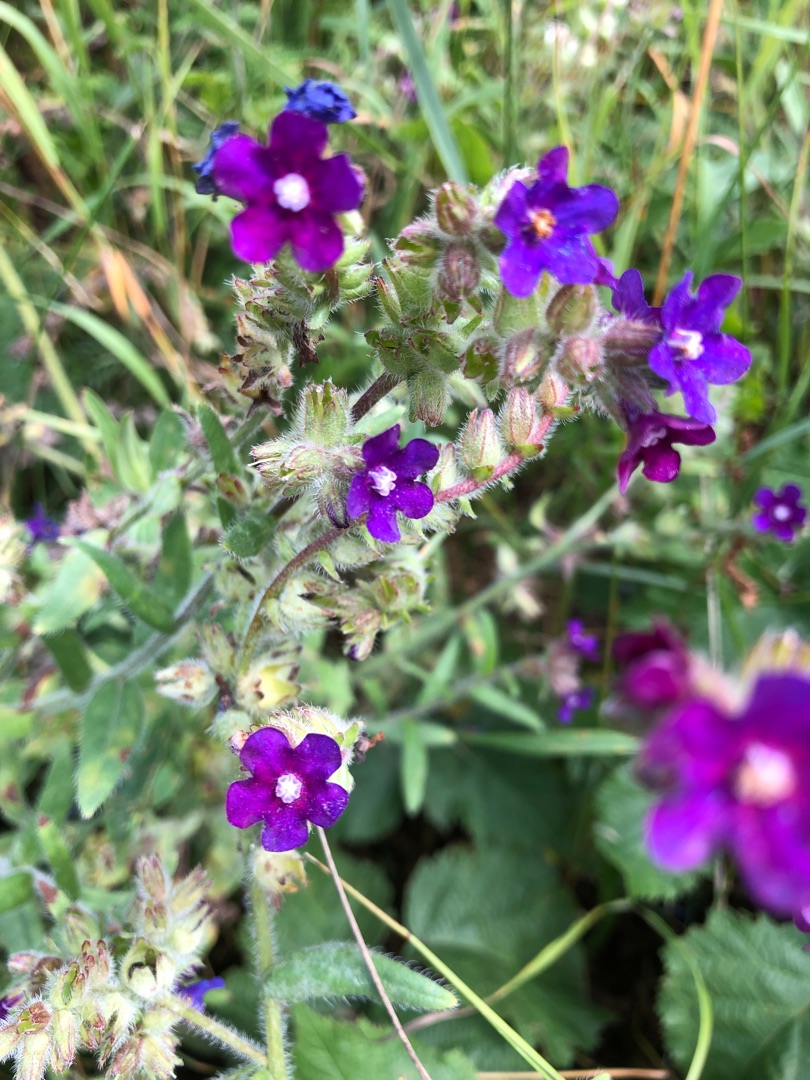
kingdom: Plantae
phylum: Tracheophyta
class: Magnoliopsida
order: Boraginales
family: Boraginaceae
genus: Anchusa
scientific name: Anchusa officinalis
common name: Læge-oksetunge
